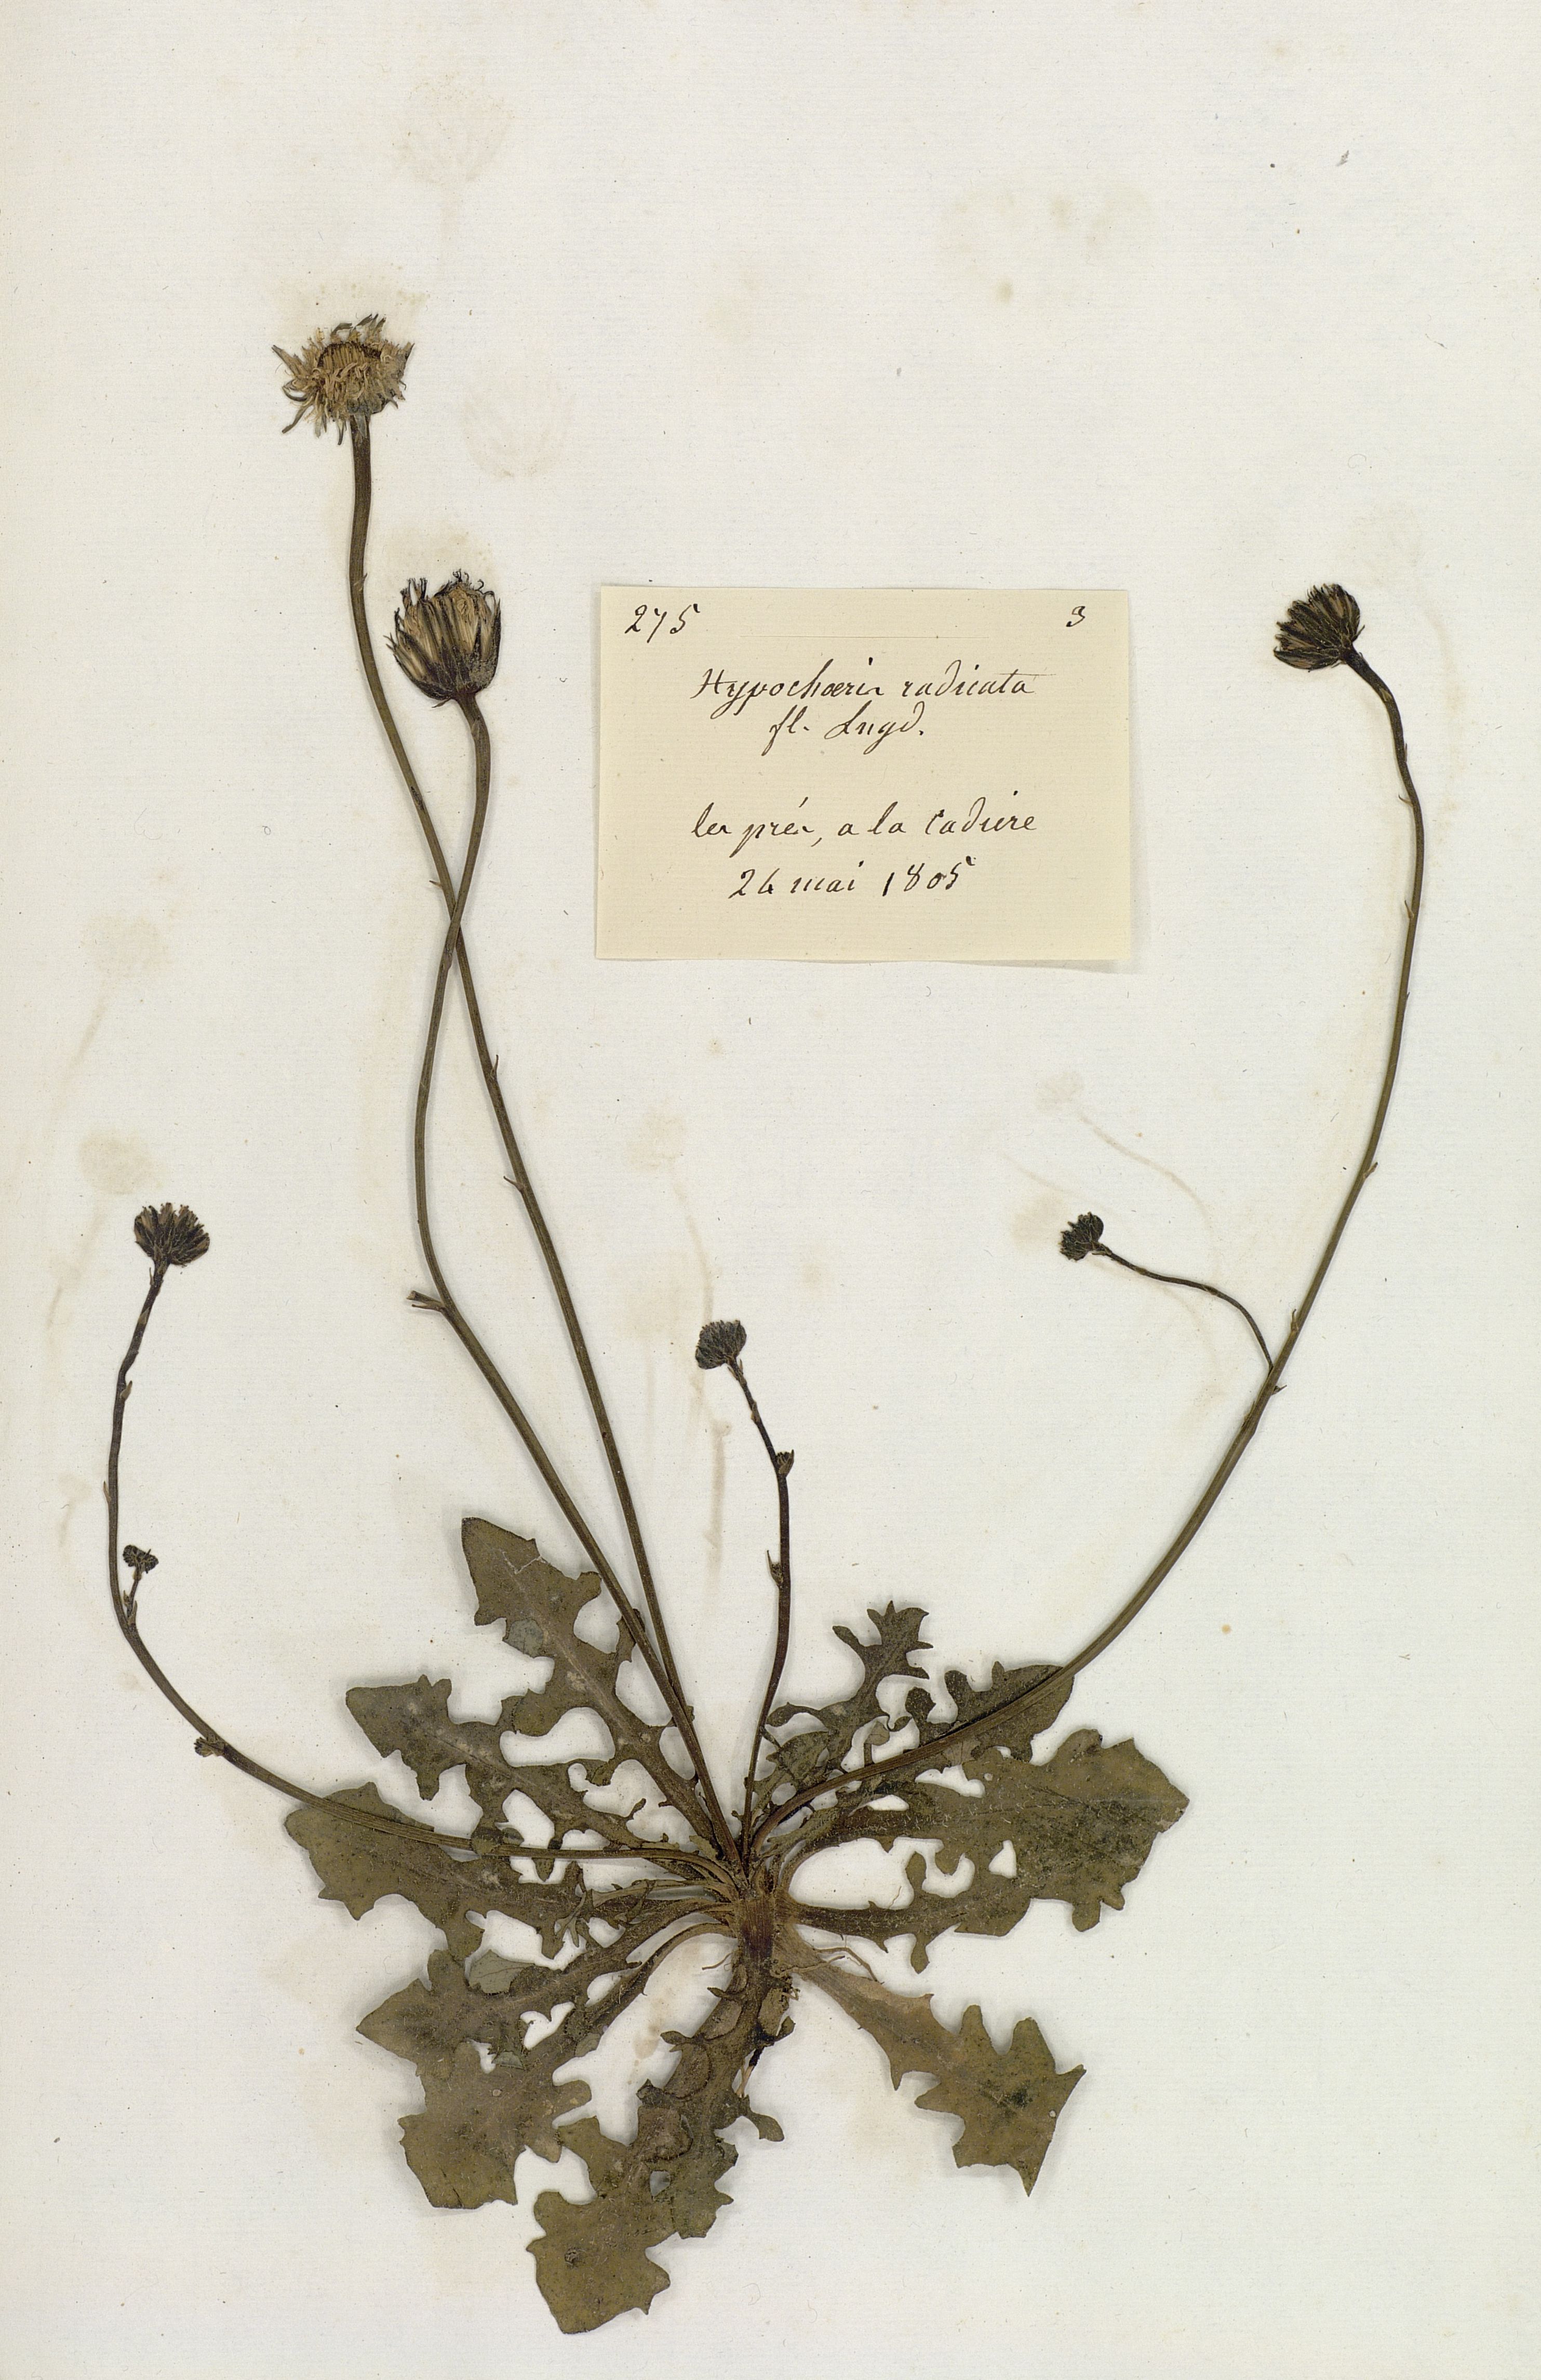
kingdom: Plantae
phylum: Tracheophyta
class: Magnoliopsida
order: Asterales
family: Asteraceae
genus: Hypochaeris
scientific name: Hypochaeris radicata
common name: Flatweed
